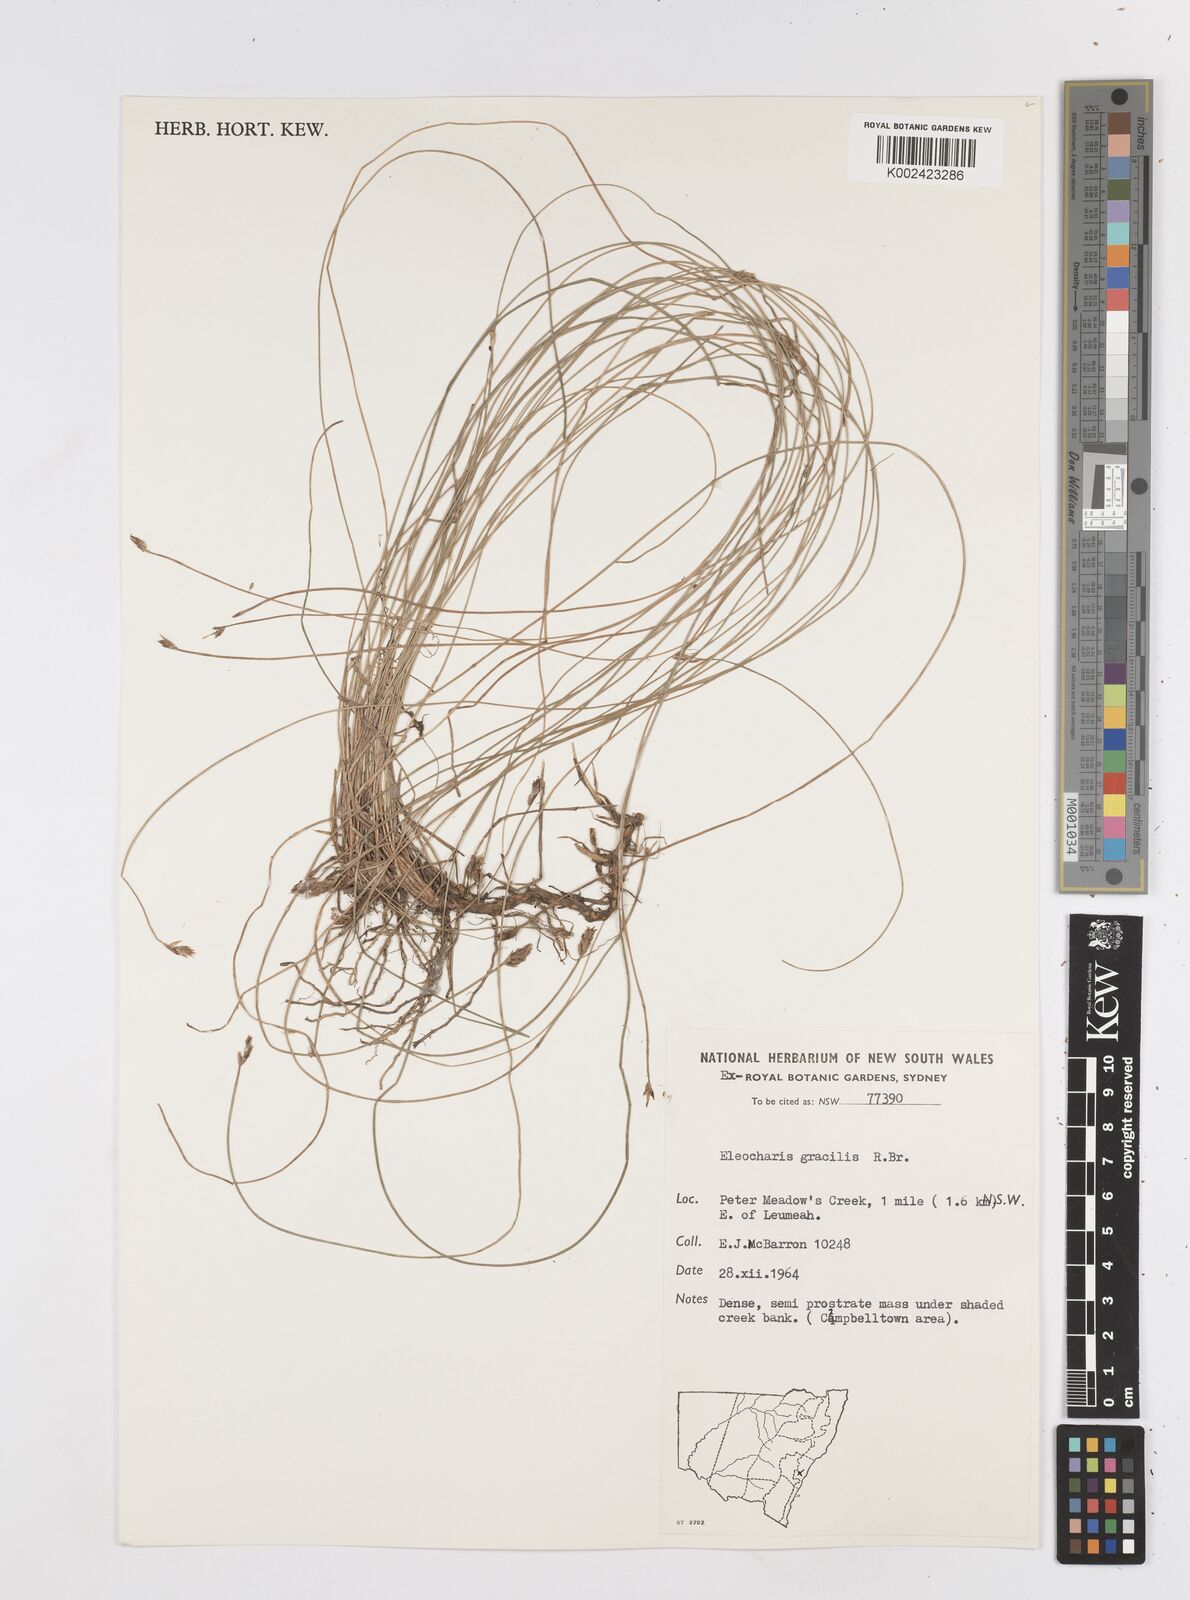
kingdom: Plantae
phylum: Tracheophyta
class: Liliopsida
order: Poales
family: Cyperaceae
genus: Eleocharis
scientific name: Eleocharis multicaulis
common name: Many-stalked spike-rush
